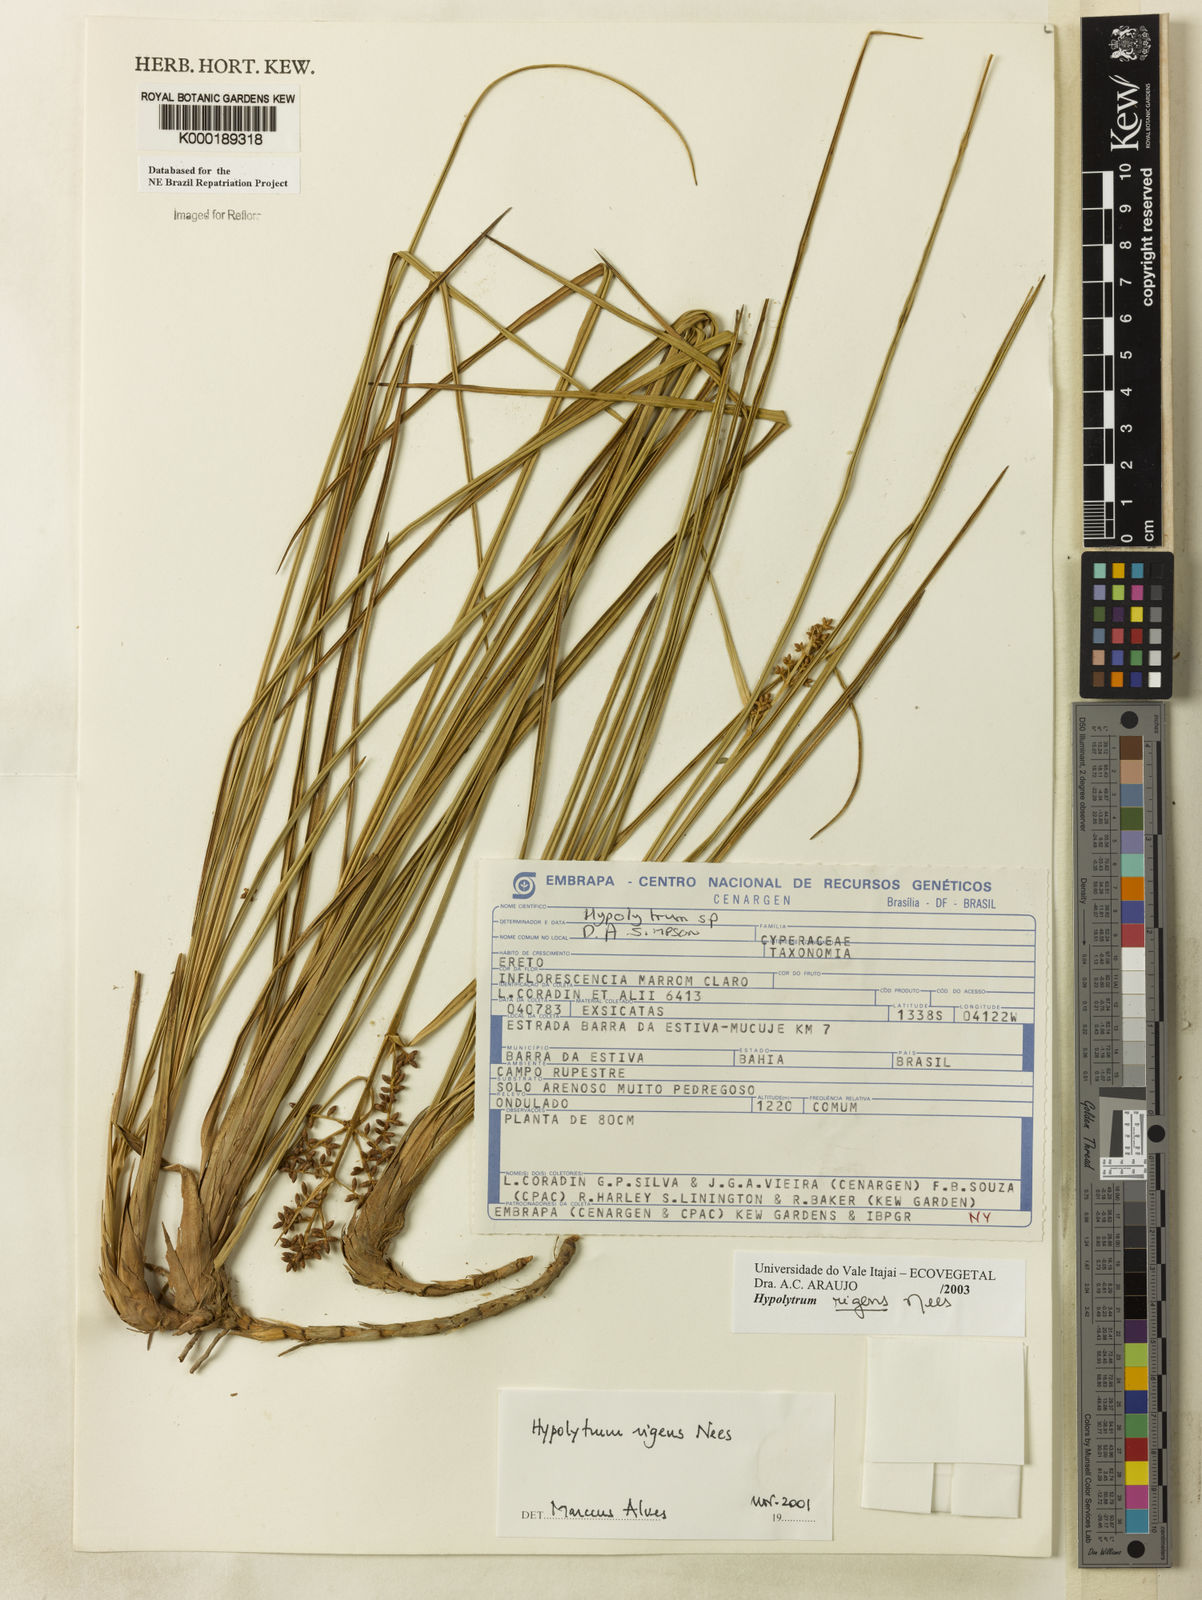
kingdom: Plantae
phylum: Tracheophyta
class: Liliopsida
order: Poales
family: Cyperaceae
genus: Hypolytrum
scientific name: Hypolytrum rigens
